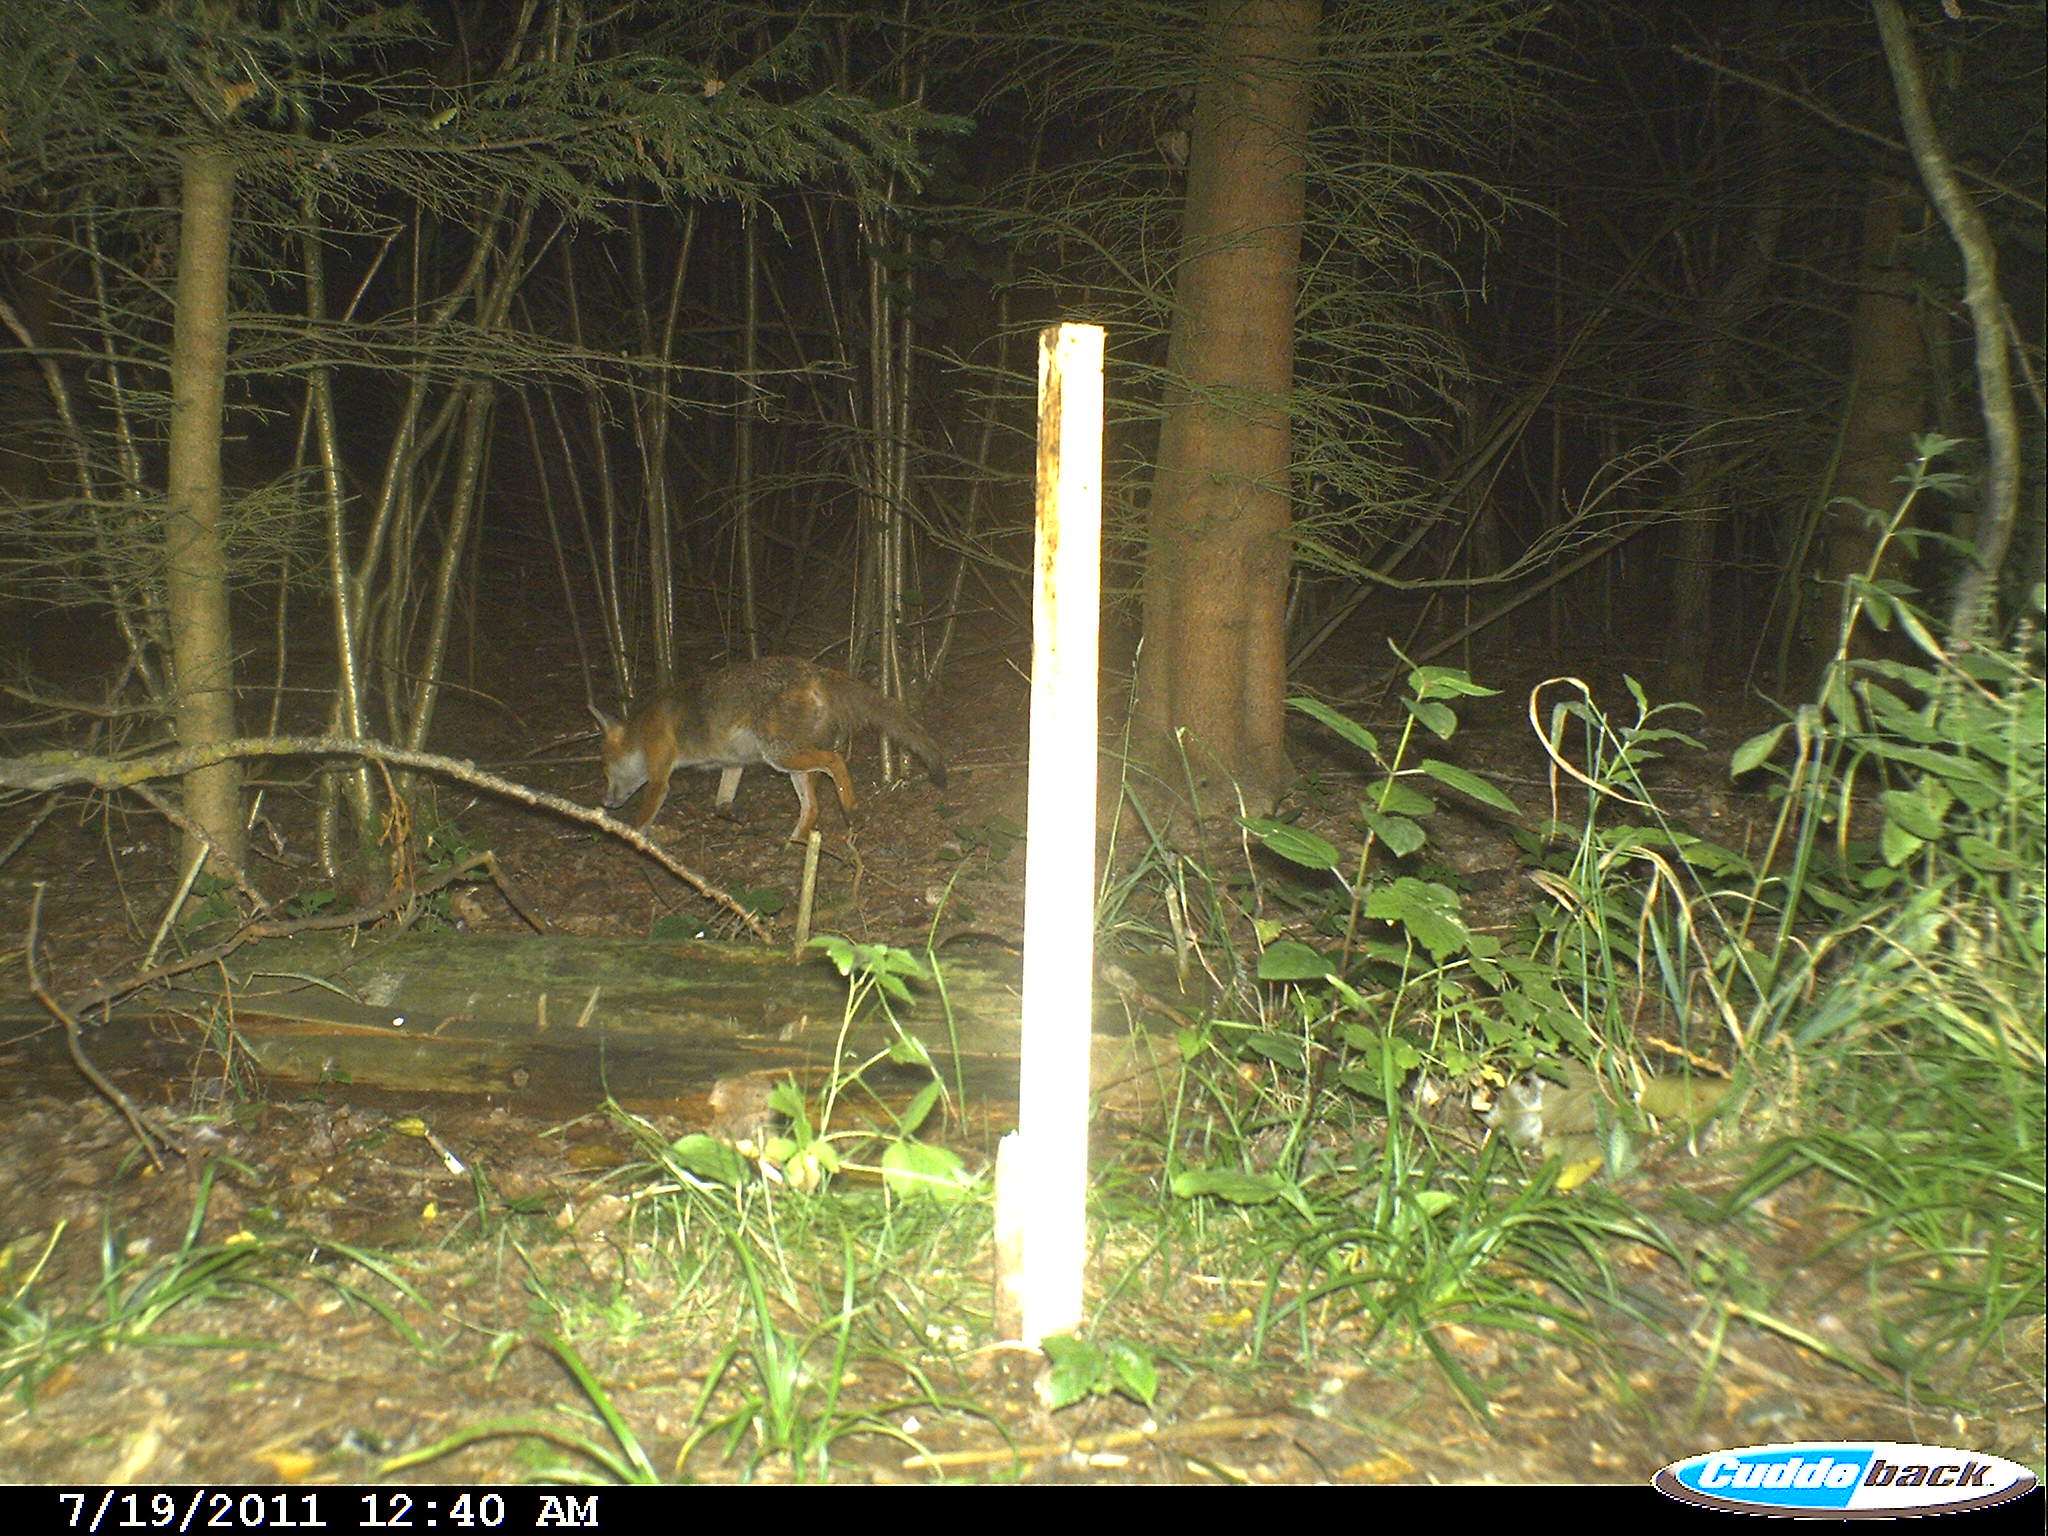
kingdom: Animalia
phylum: Chordata
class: Mammalia
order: Carnivora
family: Canidae
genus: Vulpes
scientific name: Vulpes vulpes
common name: Red fox
